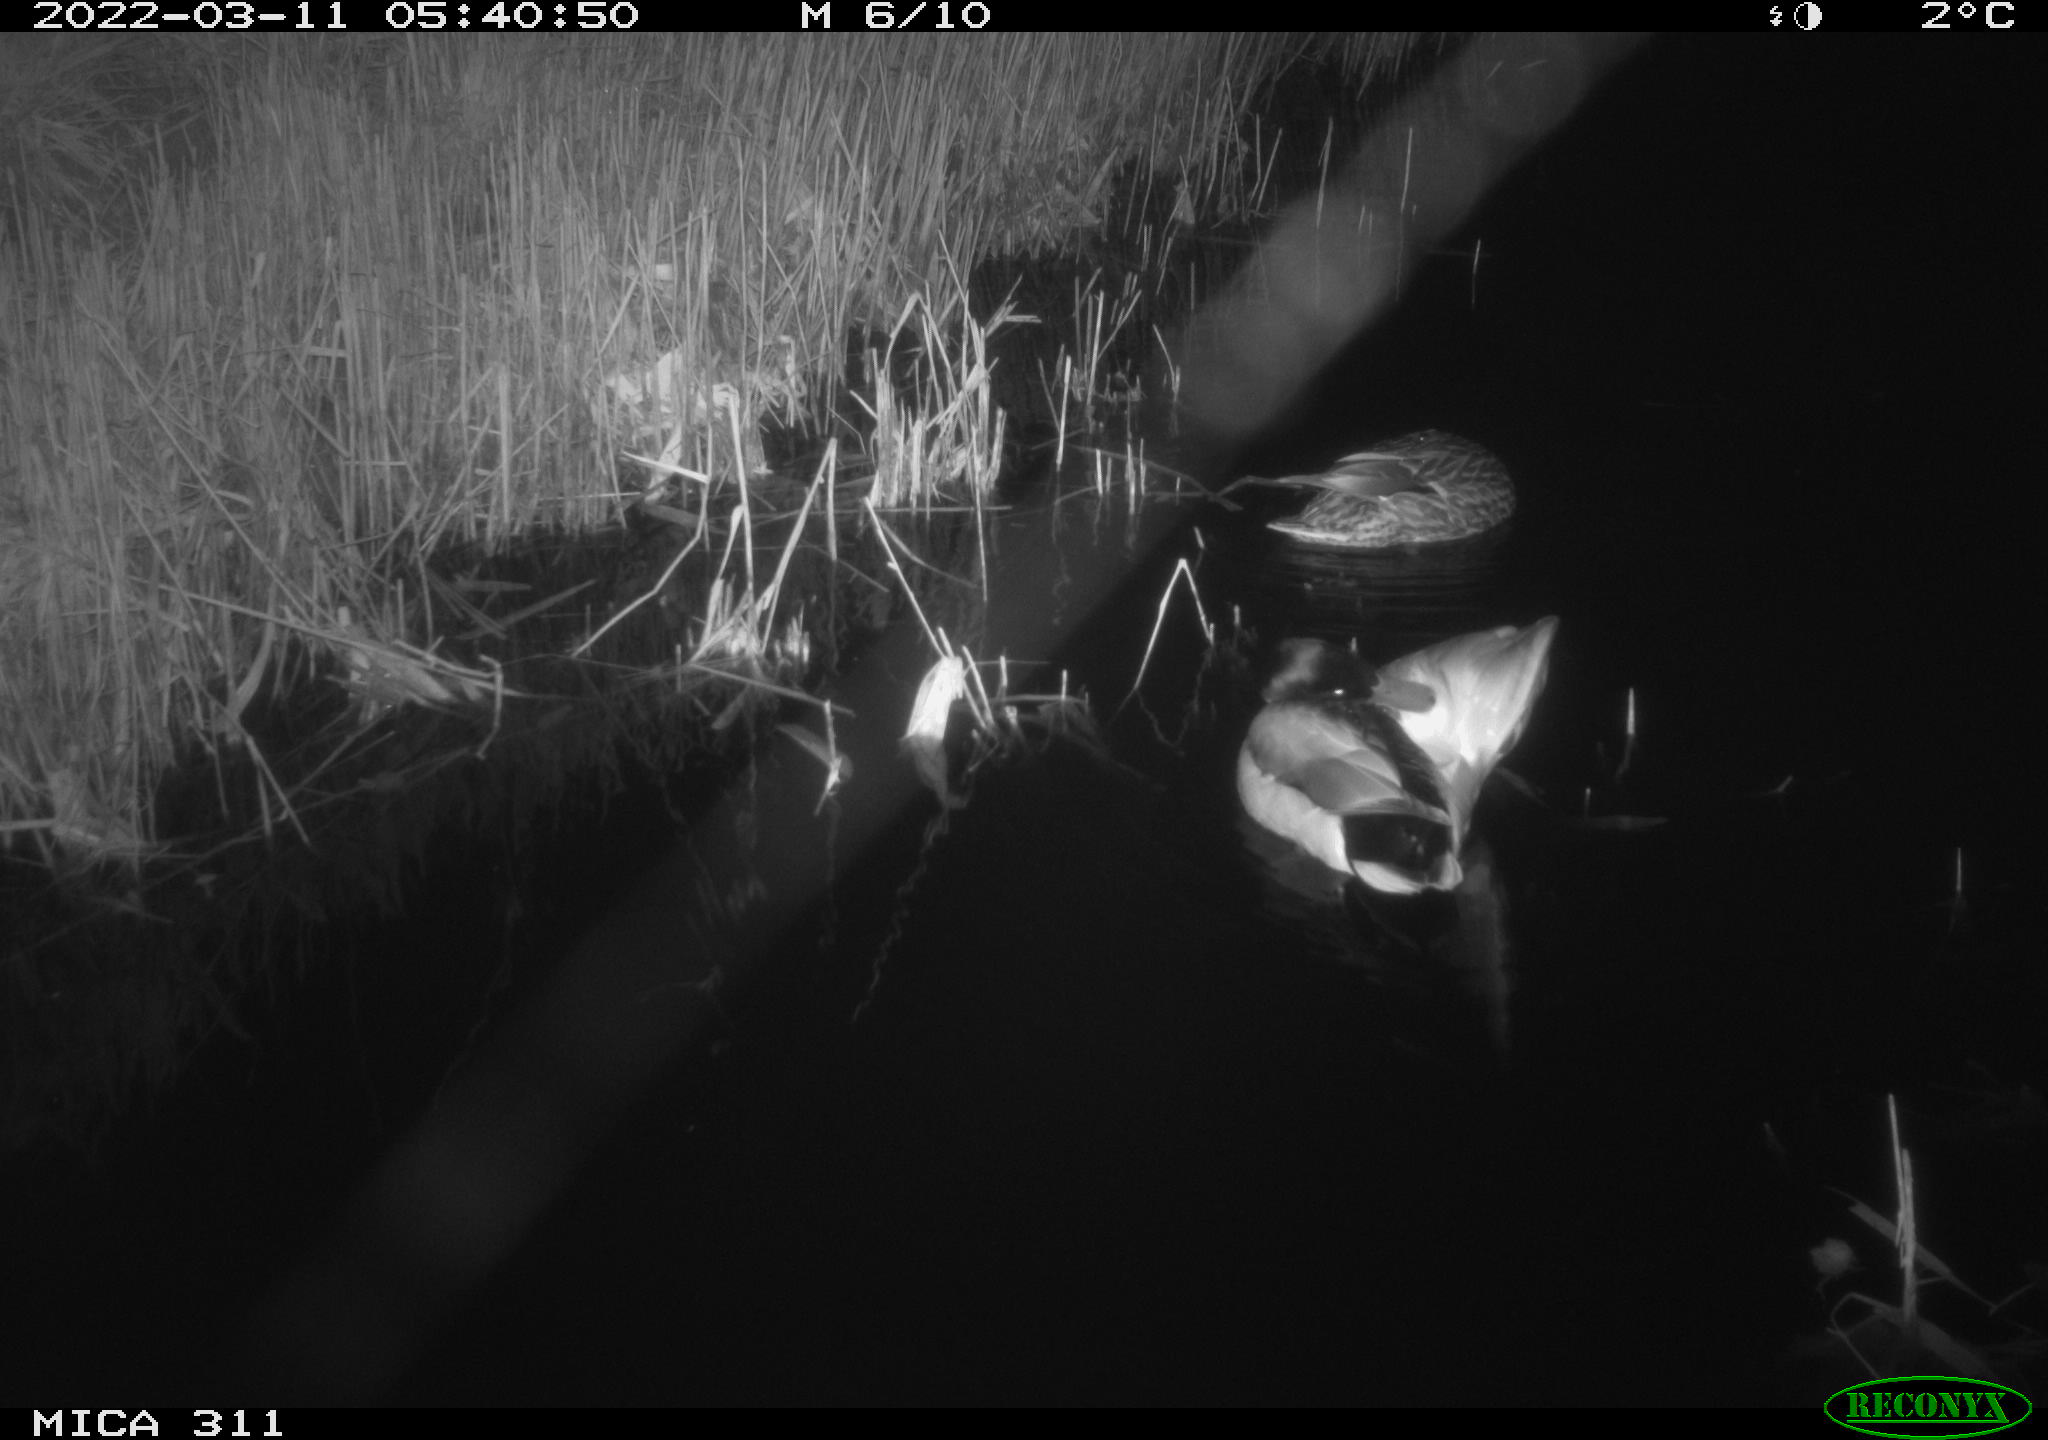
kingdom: Animalia
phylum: Chordata
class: Aves
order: Anseriformes
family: Anatidae
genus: Anas
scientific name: Anas
